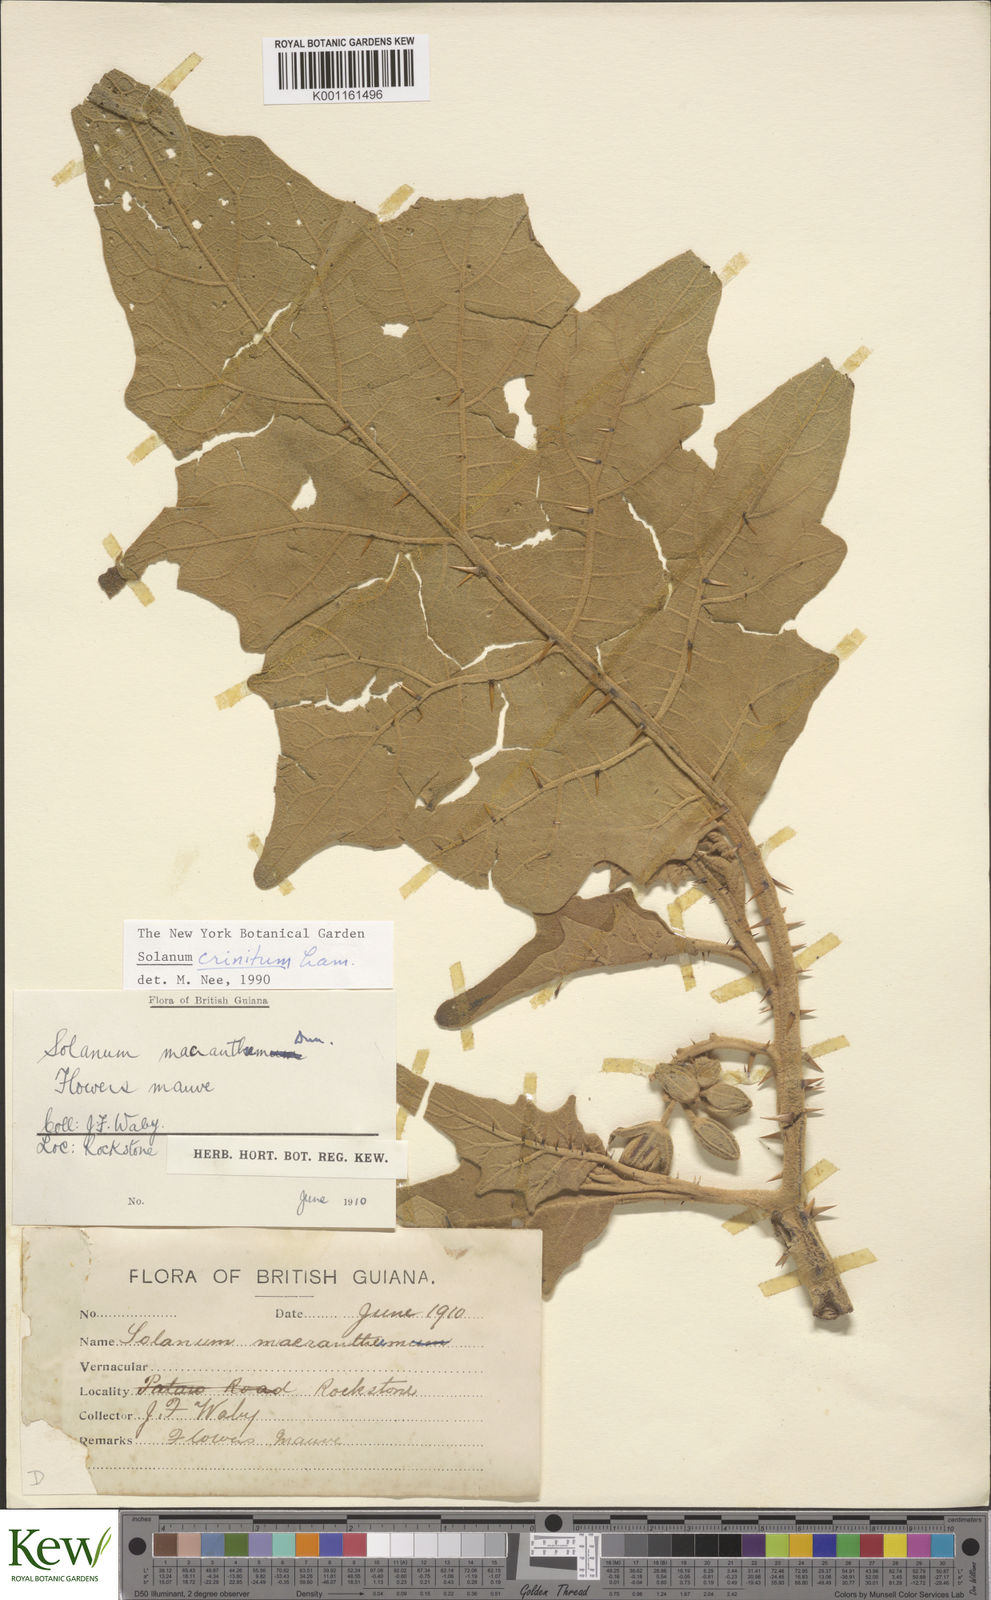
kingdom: Plantae
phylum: Tracheophyta
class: Magnoliopsida
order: Solanales
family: Solanaceae
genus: Solanum
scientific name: Solanum crinitum
